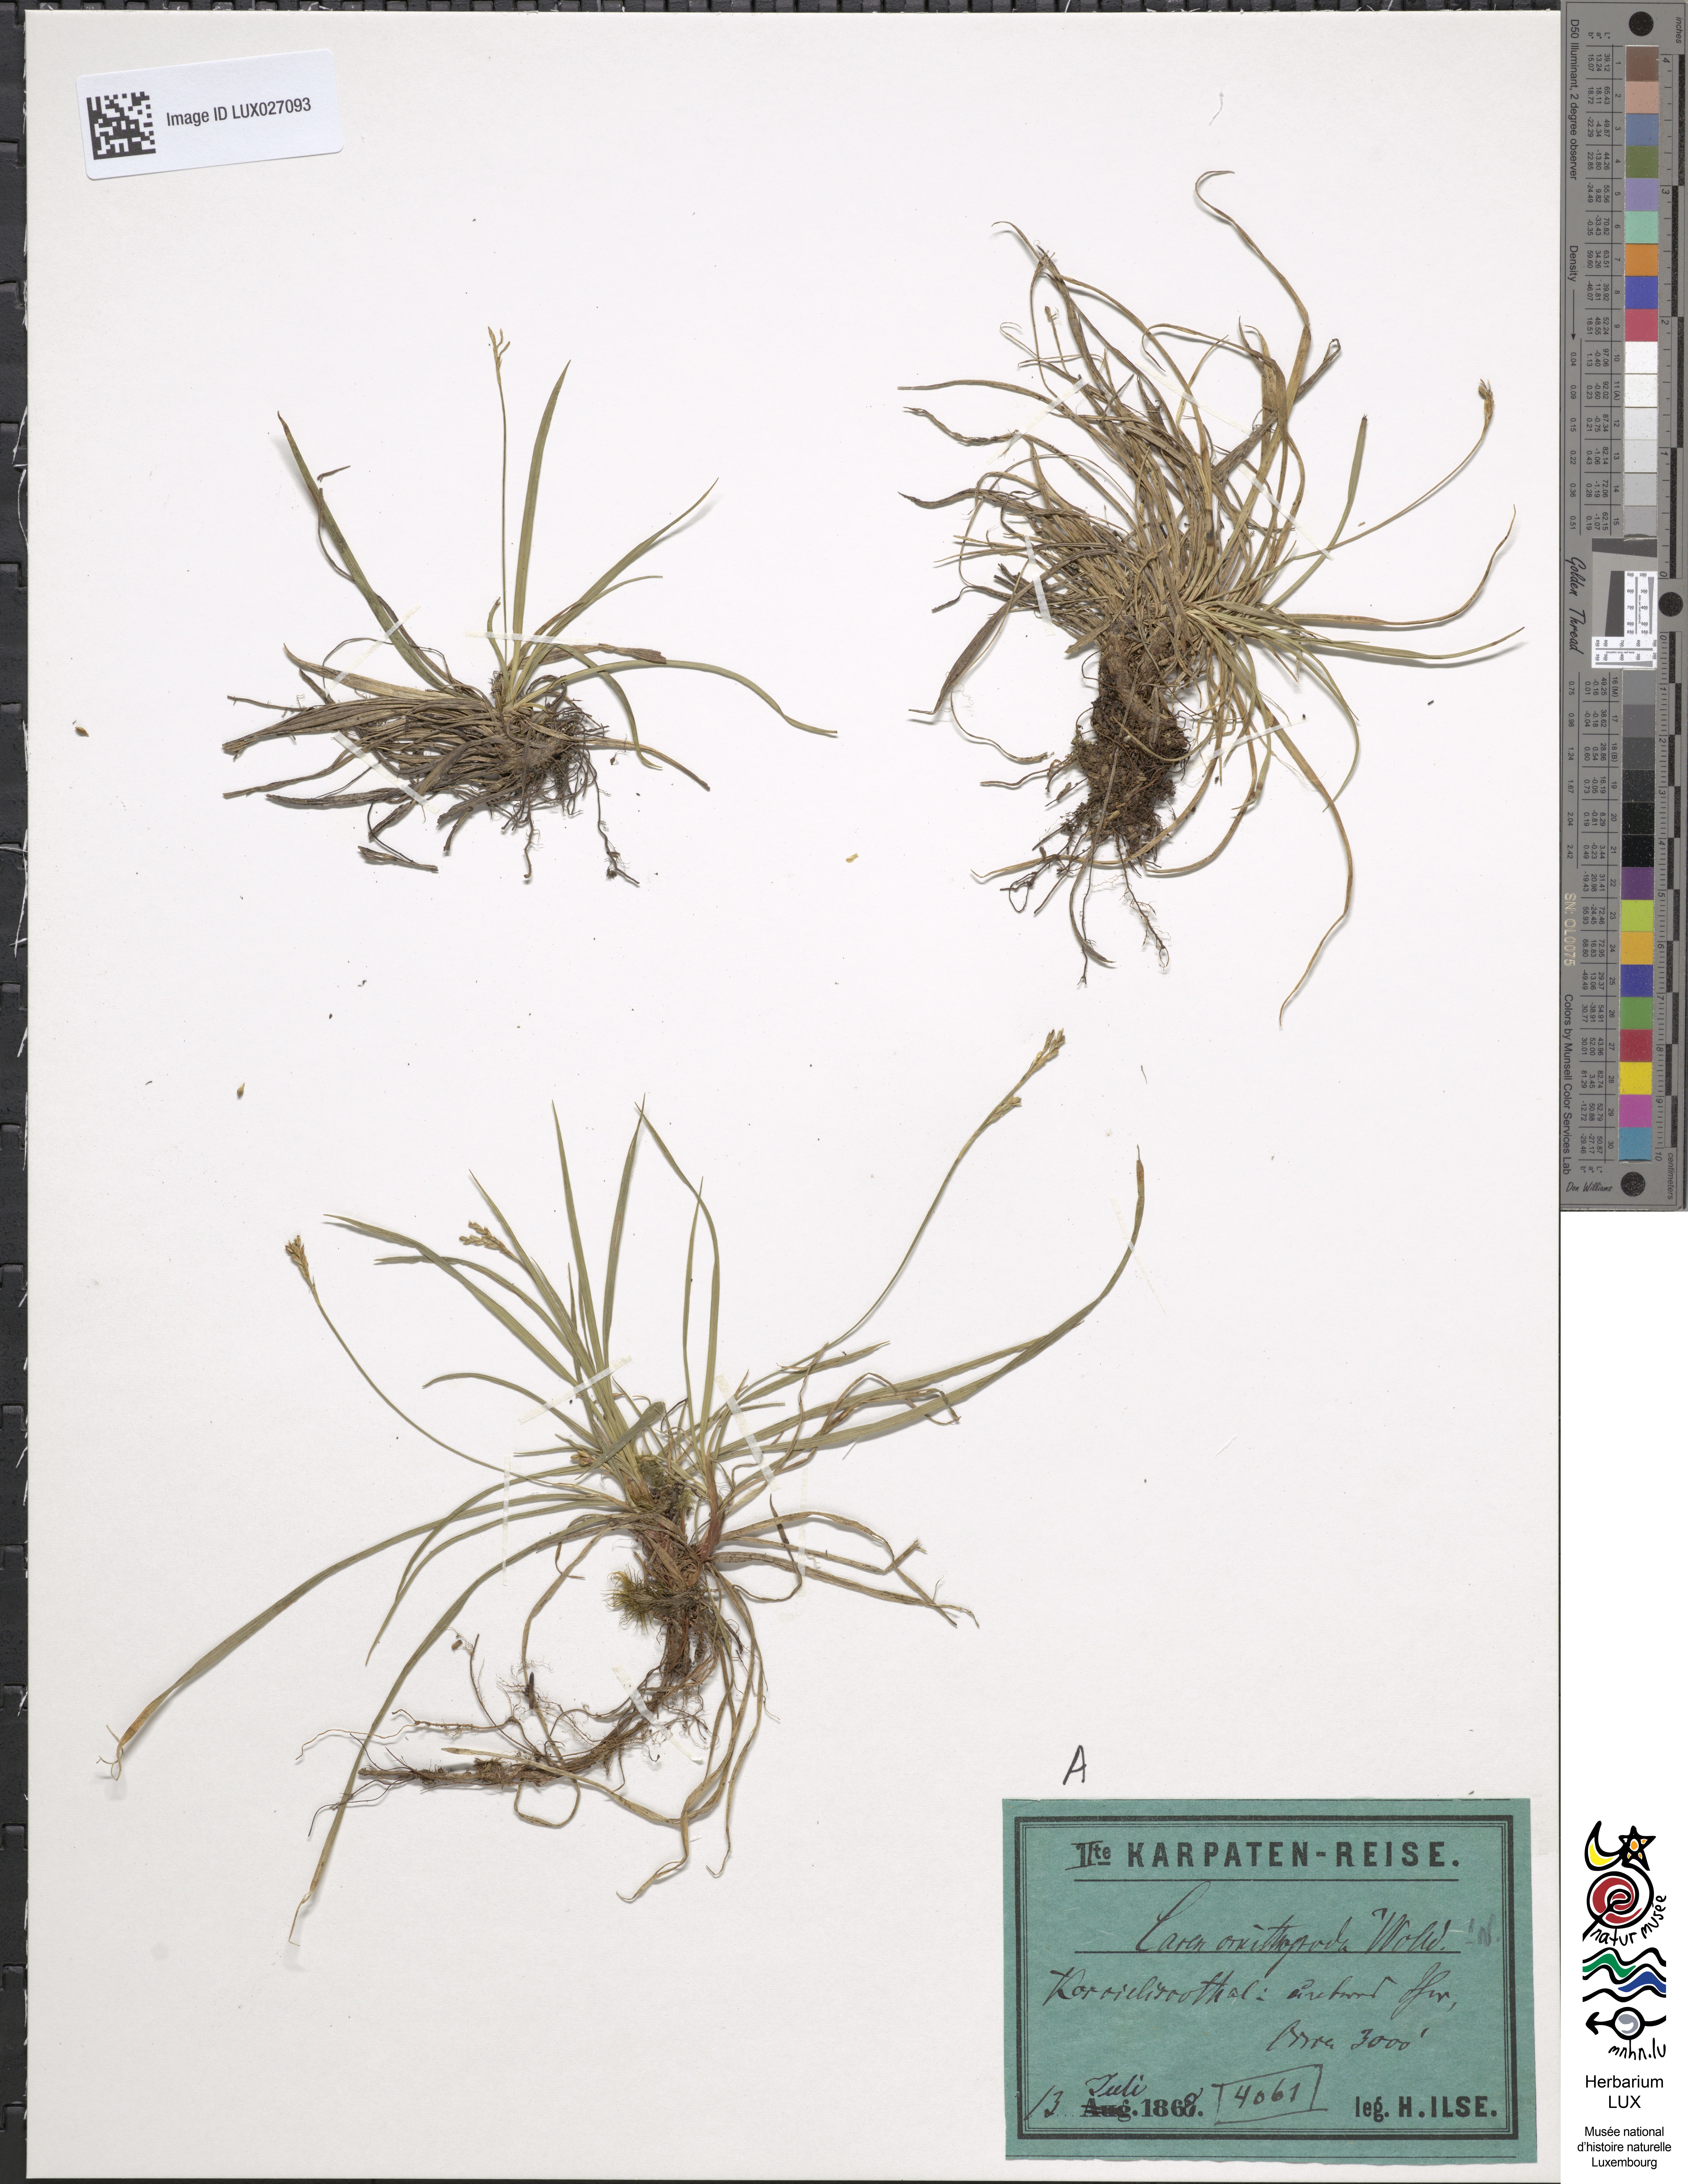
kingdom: Plantae
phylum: Tracheophyta
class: Liliopsida
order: Poales
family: Cyperaceae
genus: Carex
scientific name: Carex ornithopoda
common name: Bird's-foot sedge
